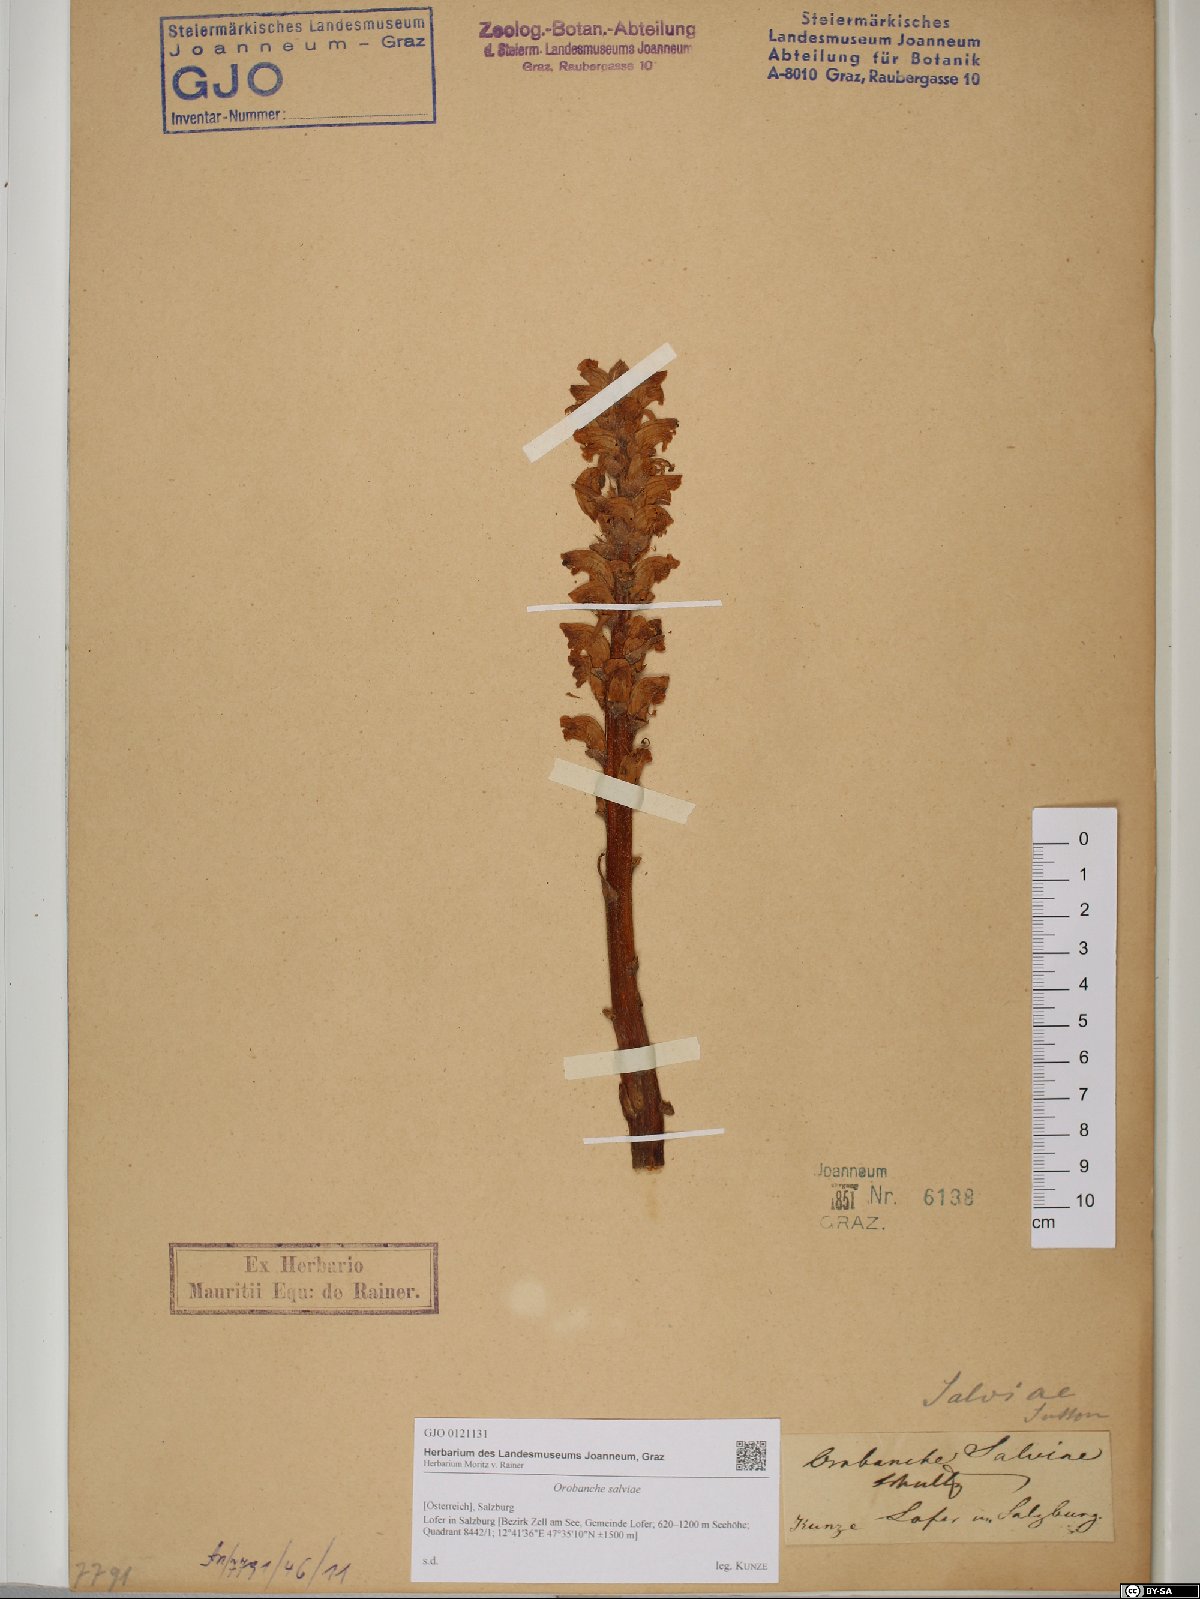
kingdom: Plantae
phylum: Tracheophyta
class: Magnoliopsida
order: Lamiales
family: Orobanchaceae
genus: Orobanche
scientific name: Orobanche salviae
